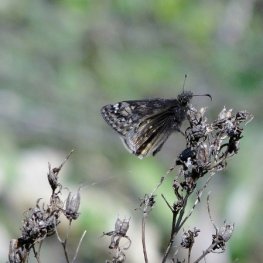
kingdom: Animalia
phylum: Arthropoda
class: Insecta
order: Lepidoptera
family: Hesperiidae
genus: Gesta
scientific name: Gesta
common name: Juvenal's Duskywing
